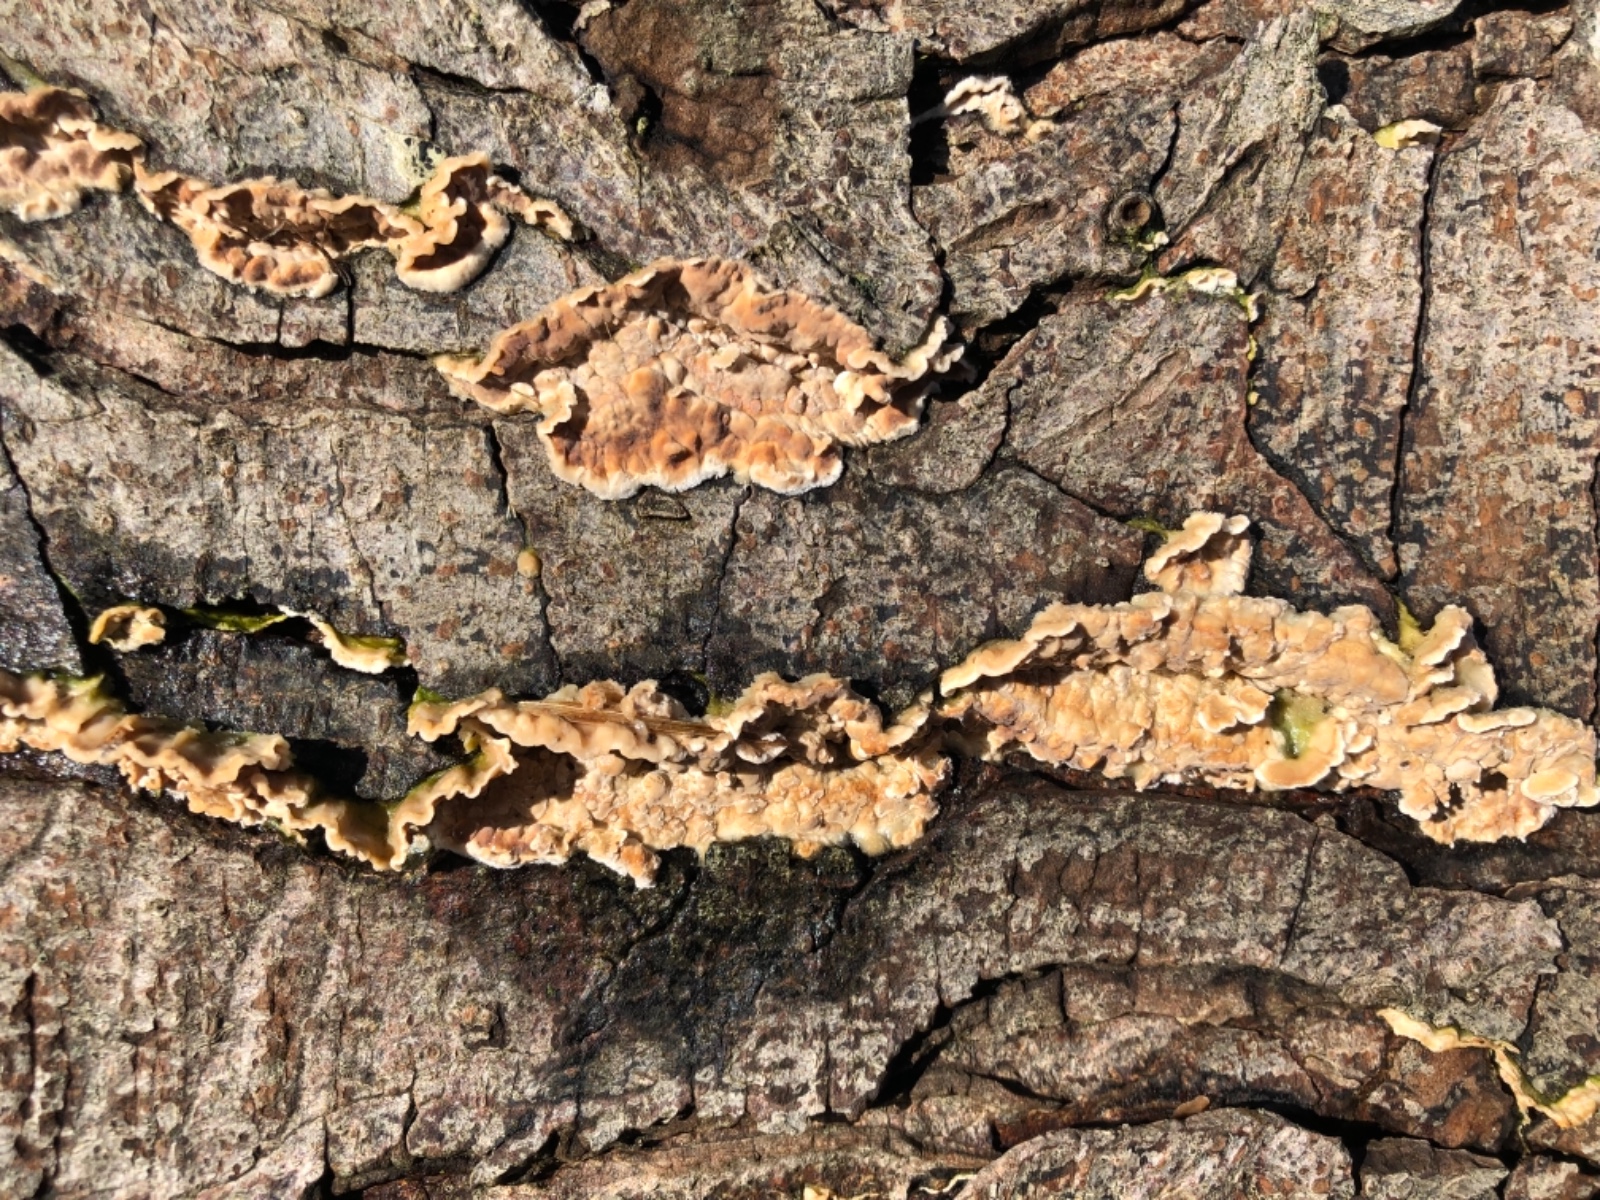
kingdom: Fungi
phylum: Basidiomycota
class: Agaricomycetes
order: Agaricales
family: Physalacriaceae
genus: Cylindrobasidium
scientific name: Cylindrobasidium evolvens
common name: sprækkehinde
